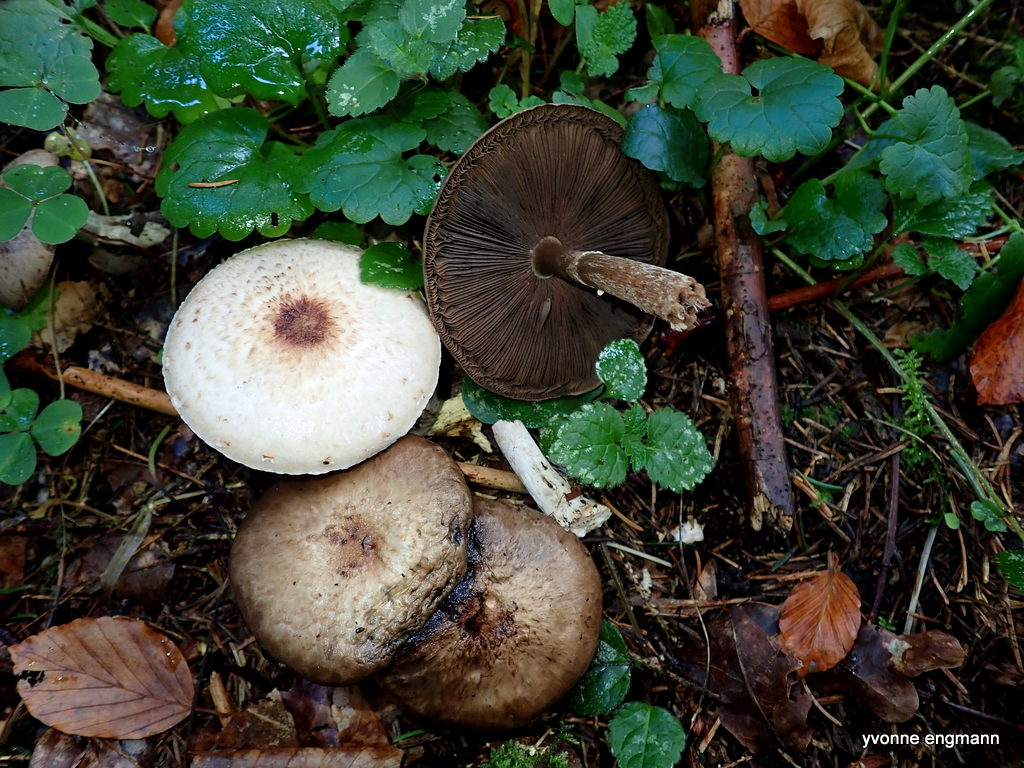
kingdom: Fungi
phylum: Basidiomycota
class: Agaricomycetes
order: Agaricales
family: Agaricaceae
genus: Agaricus
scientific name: Agaricus
